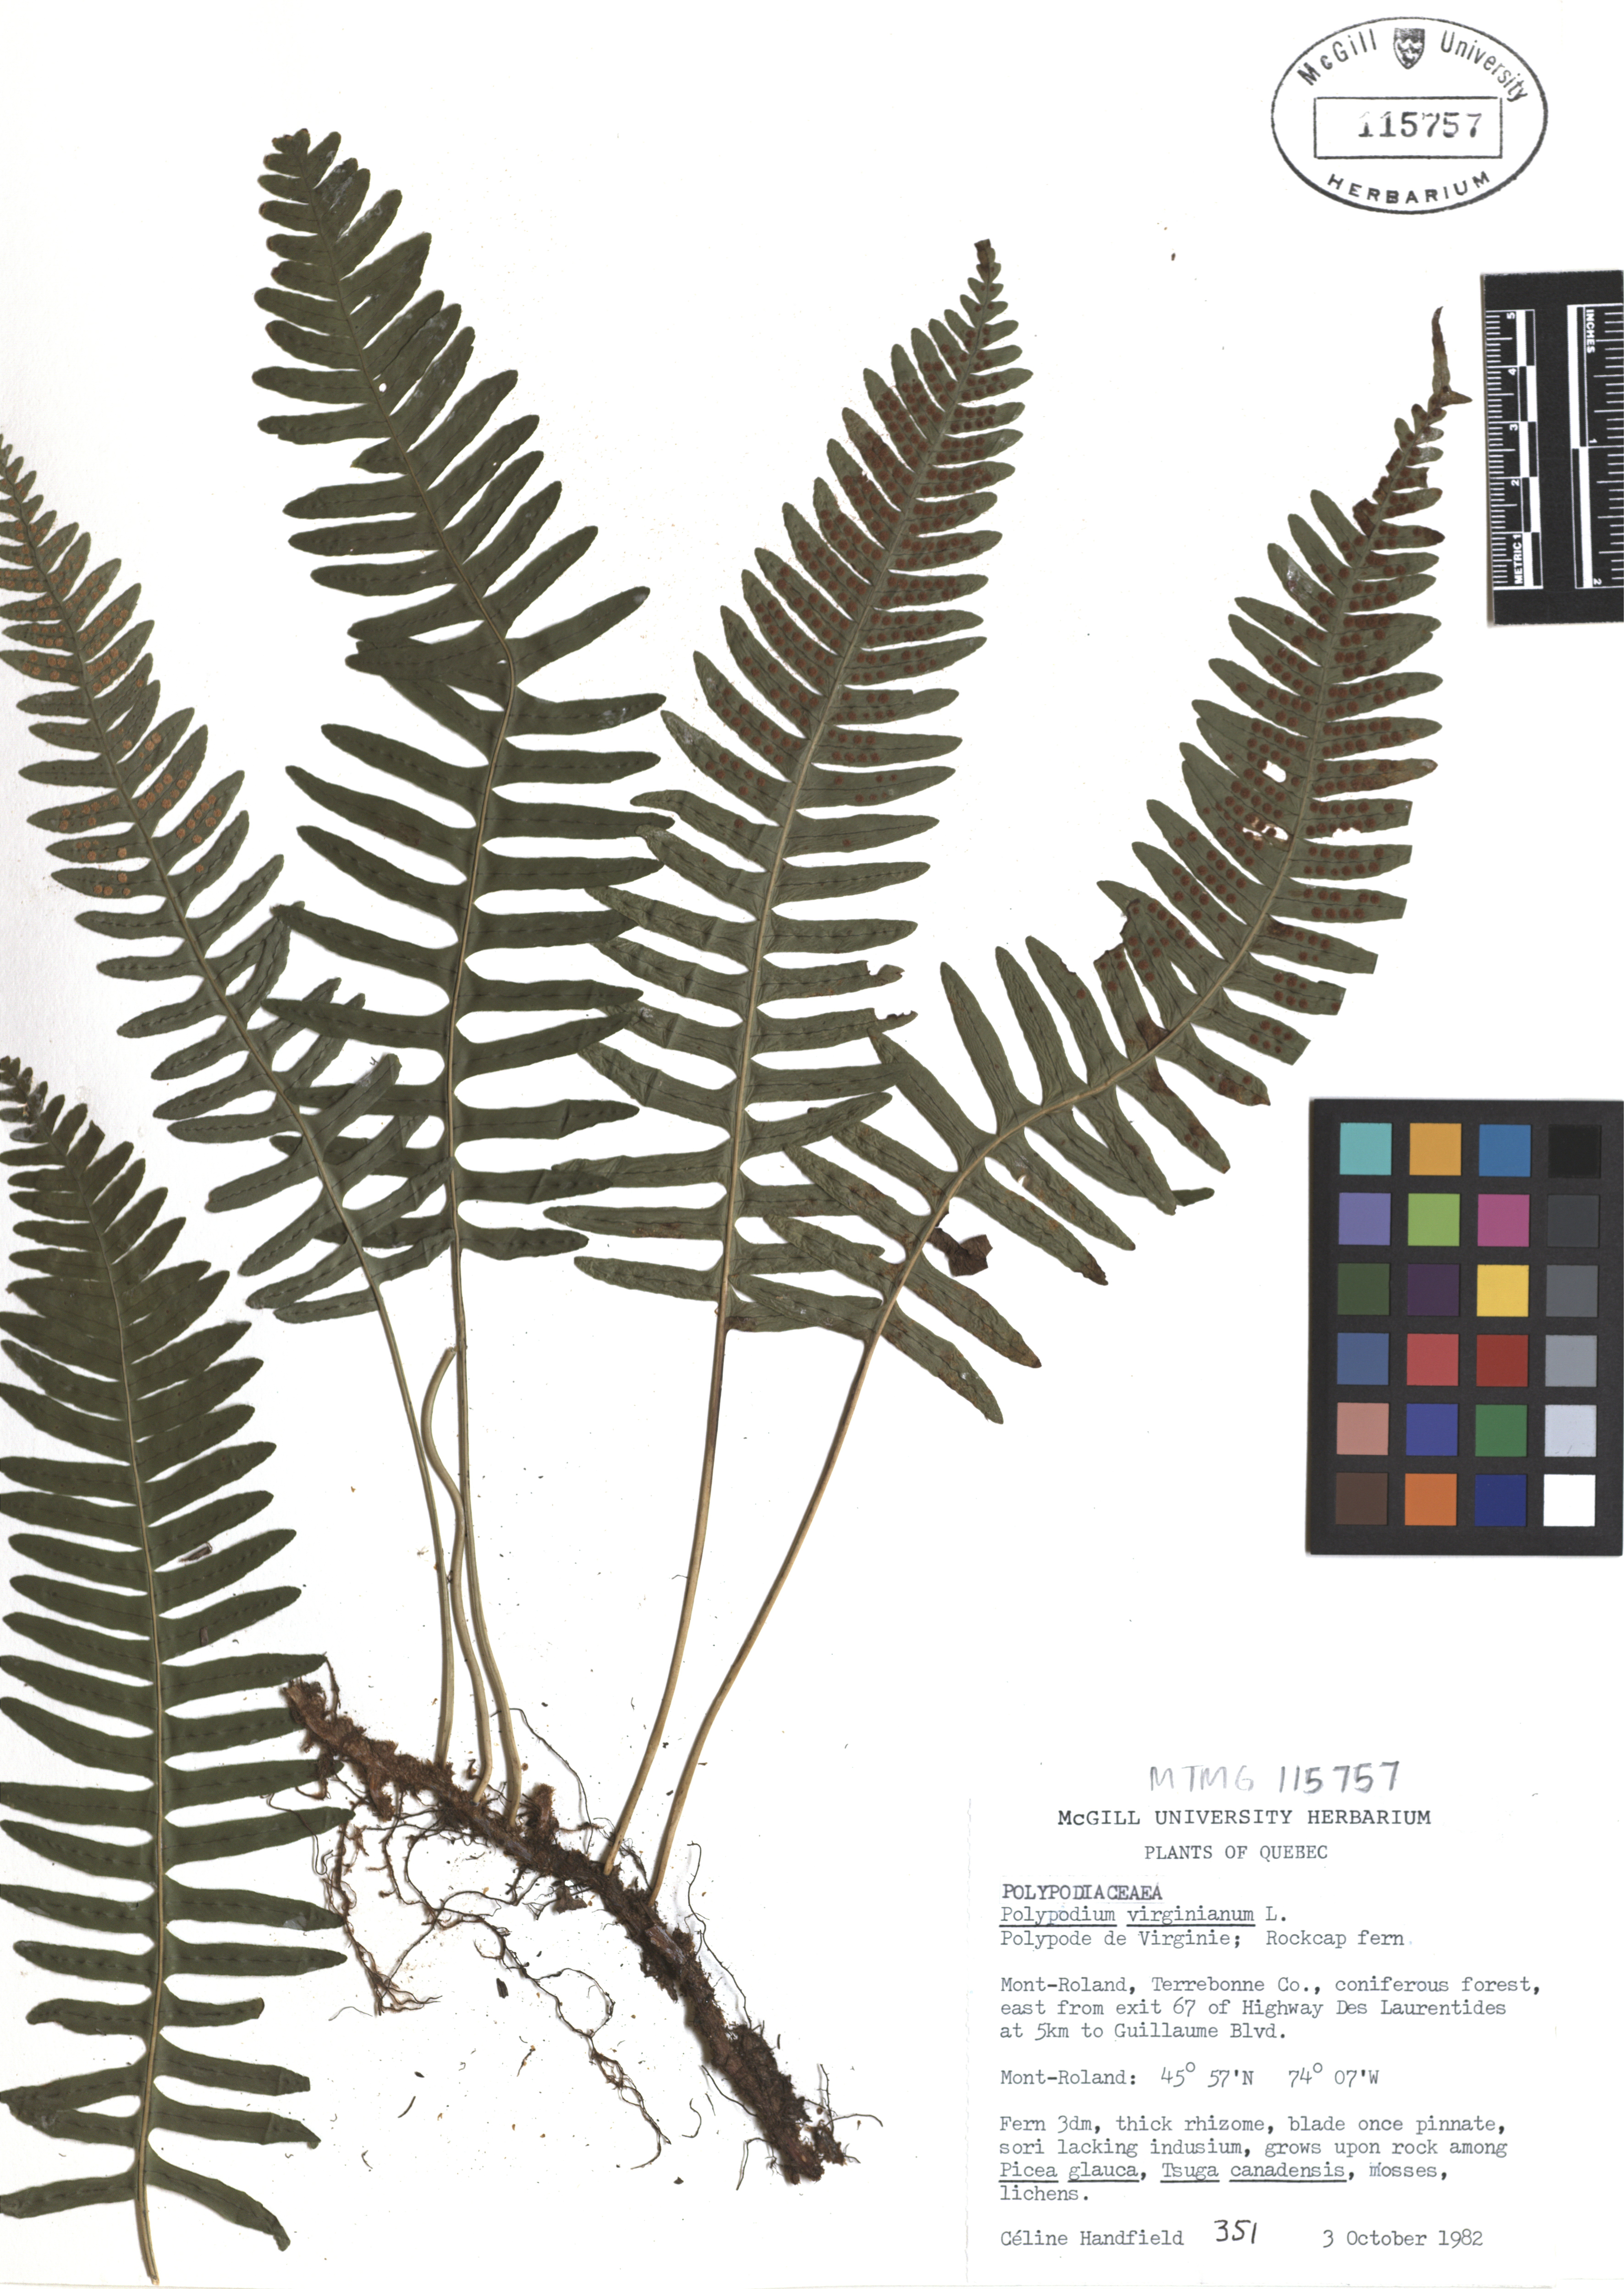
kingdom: Plantae
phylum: Tracheophyta
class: Polypodiopsida
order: Polypodiales
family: Polypodiaceae
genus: Polypodium
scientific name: Polypodium virginianum
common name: American wall fern
